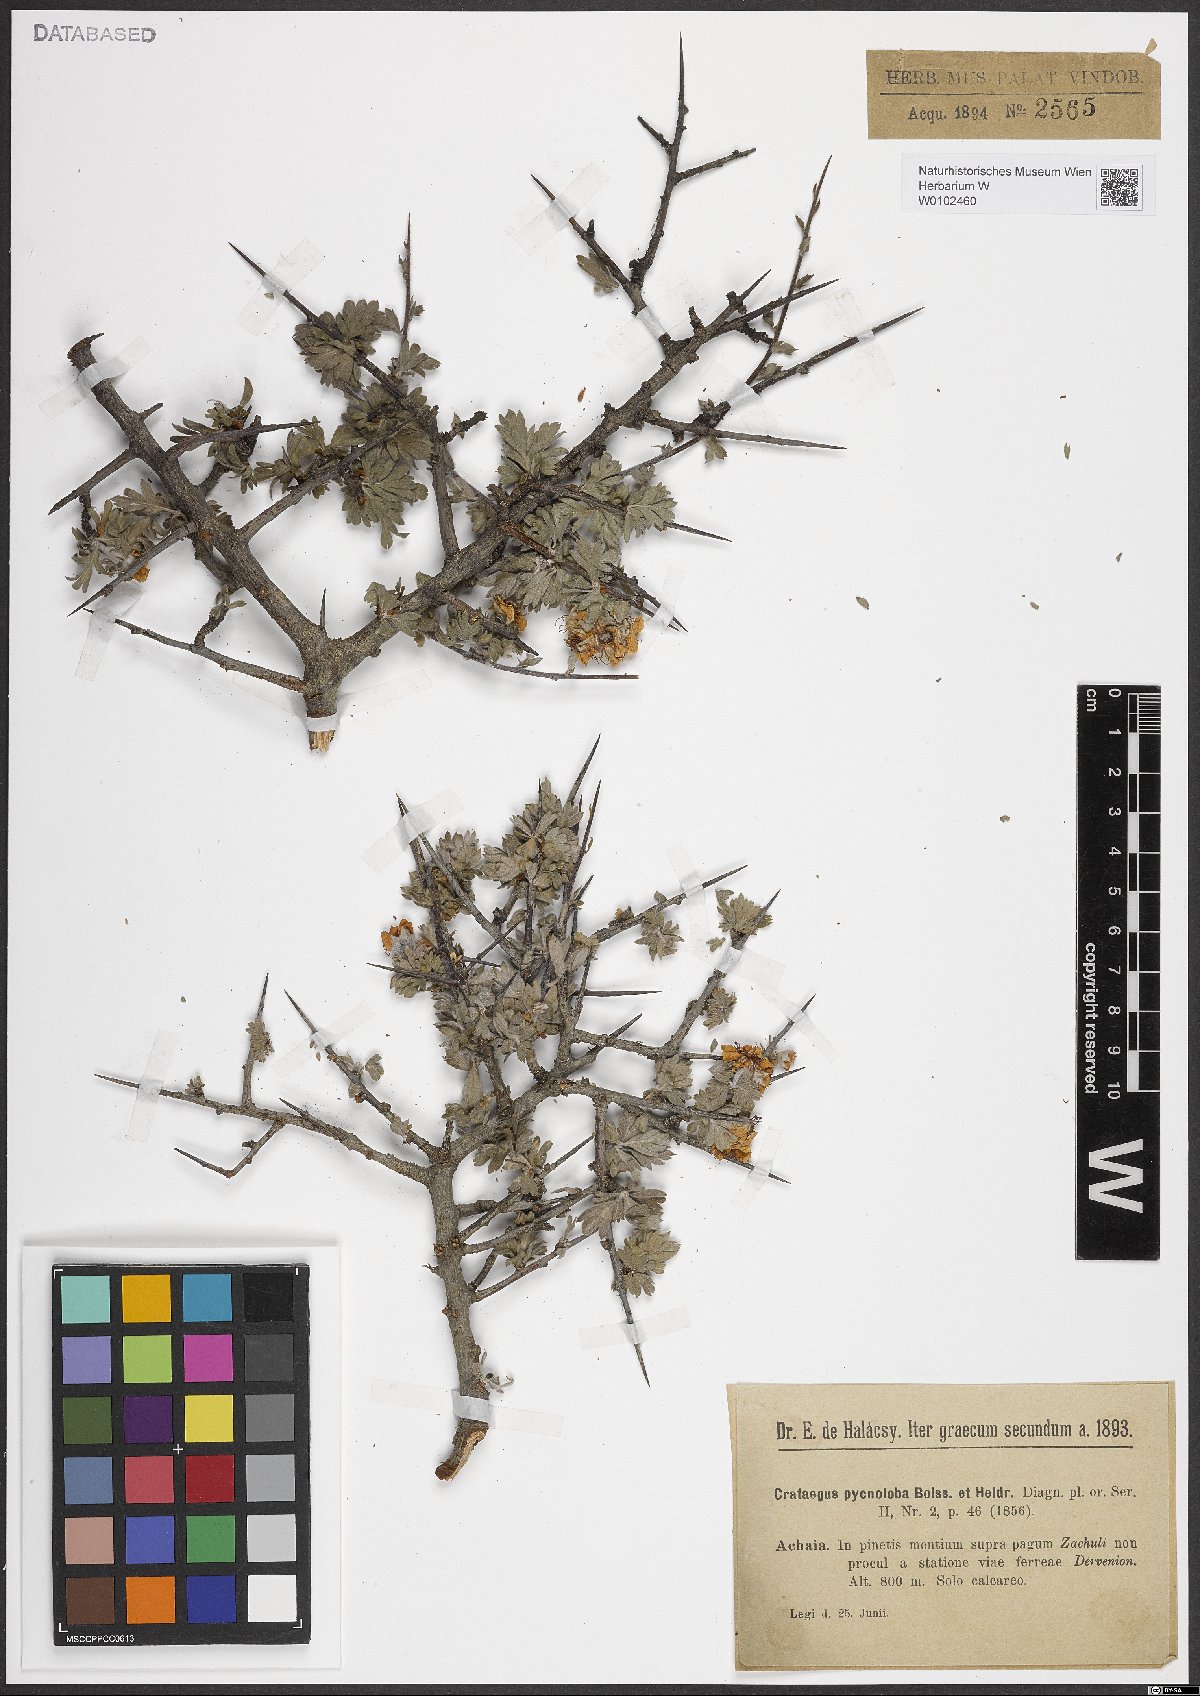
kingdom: Plantae
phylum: Tracheophyta
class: Magnoliopsida
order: Rosales
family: Rosaceae
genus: Crataegus
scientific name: Crataegus pycnoloba
